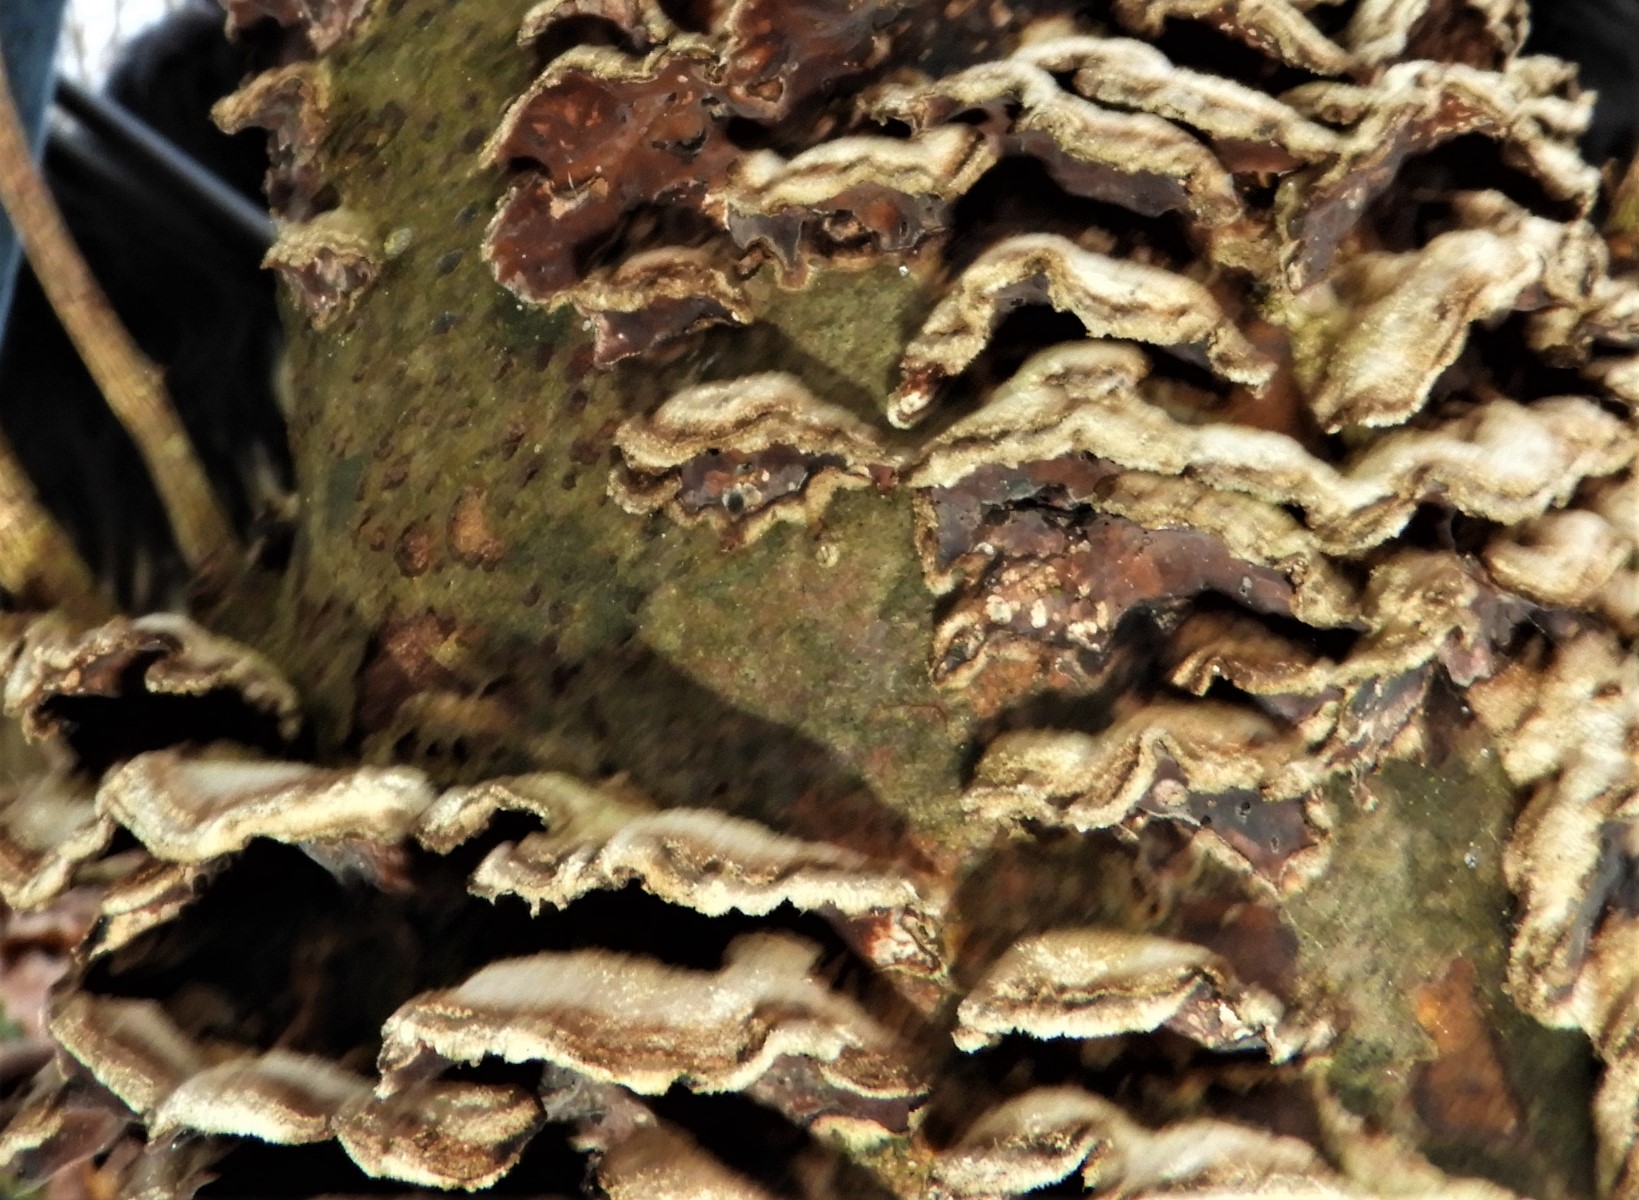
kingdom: Fungi
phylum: Basidiomycota
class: Agaricomycetes
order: Agaricales
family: Cyphellaceae
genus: Chondrostereum
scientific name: Chondrostereum purpureum
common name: purpurlædersvamp
